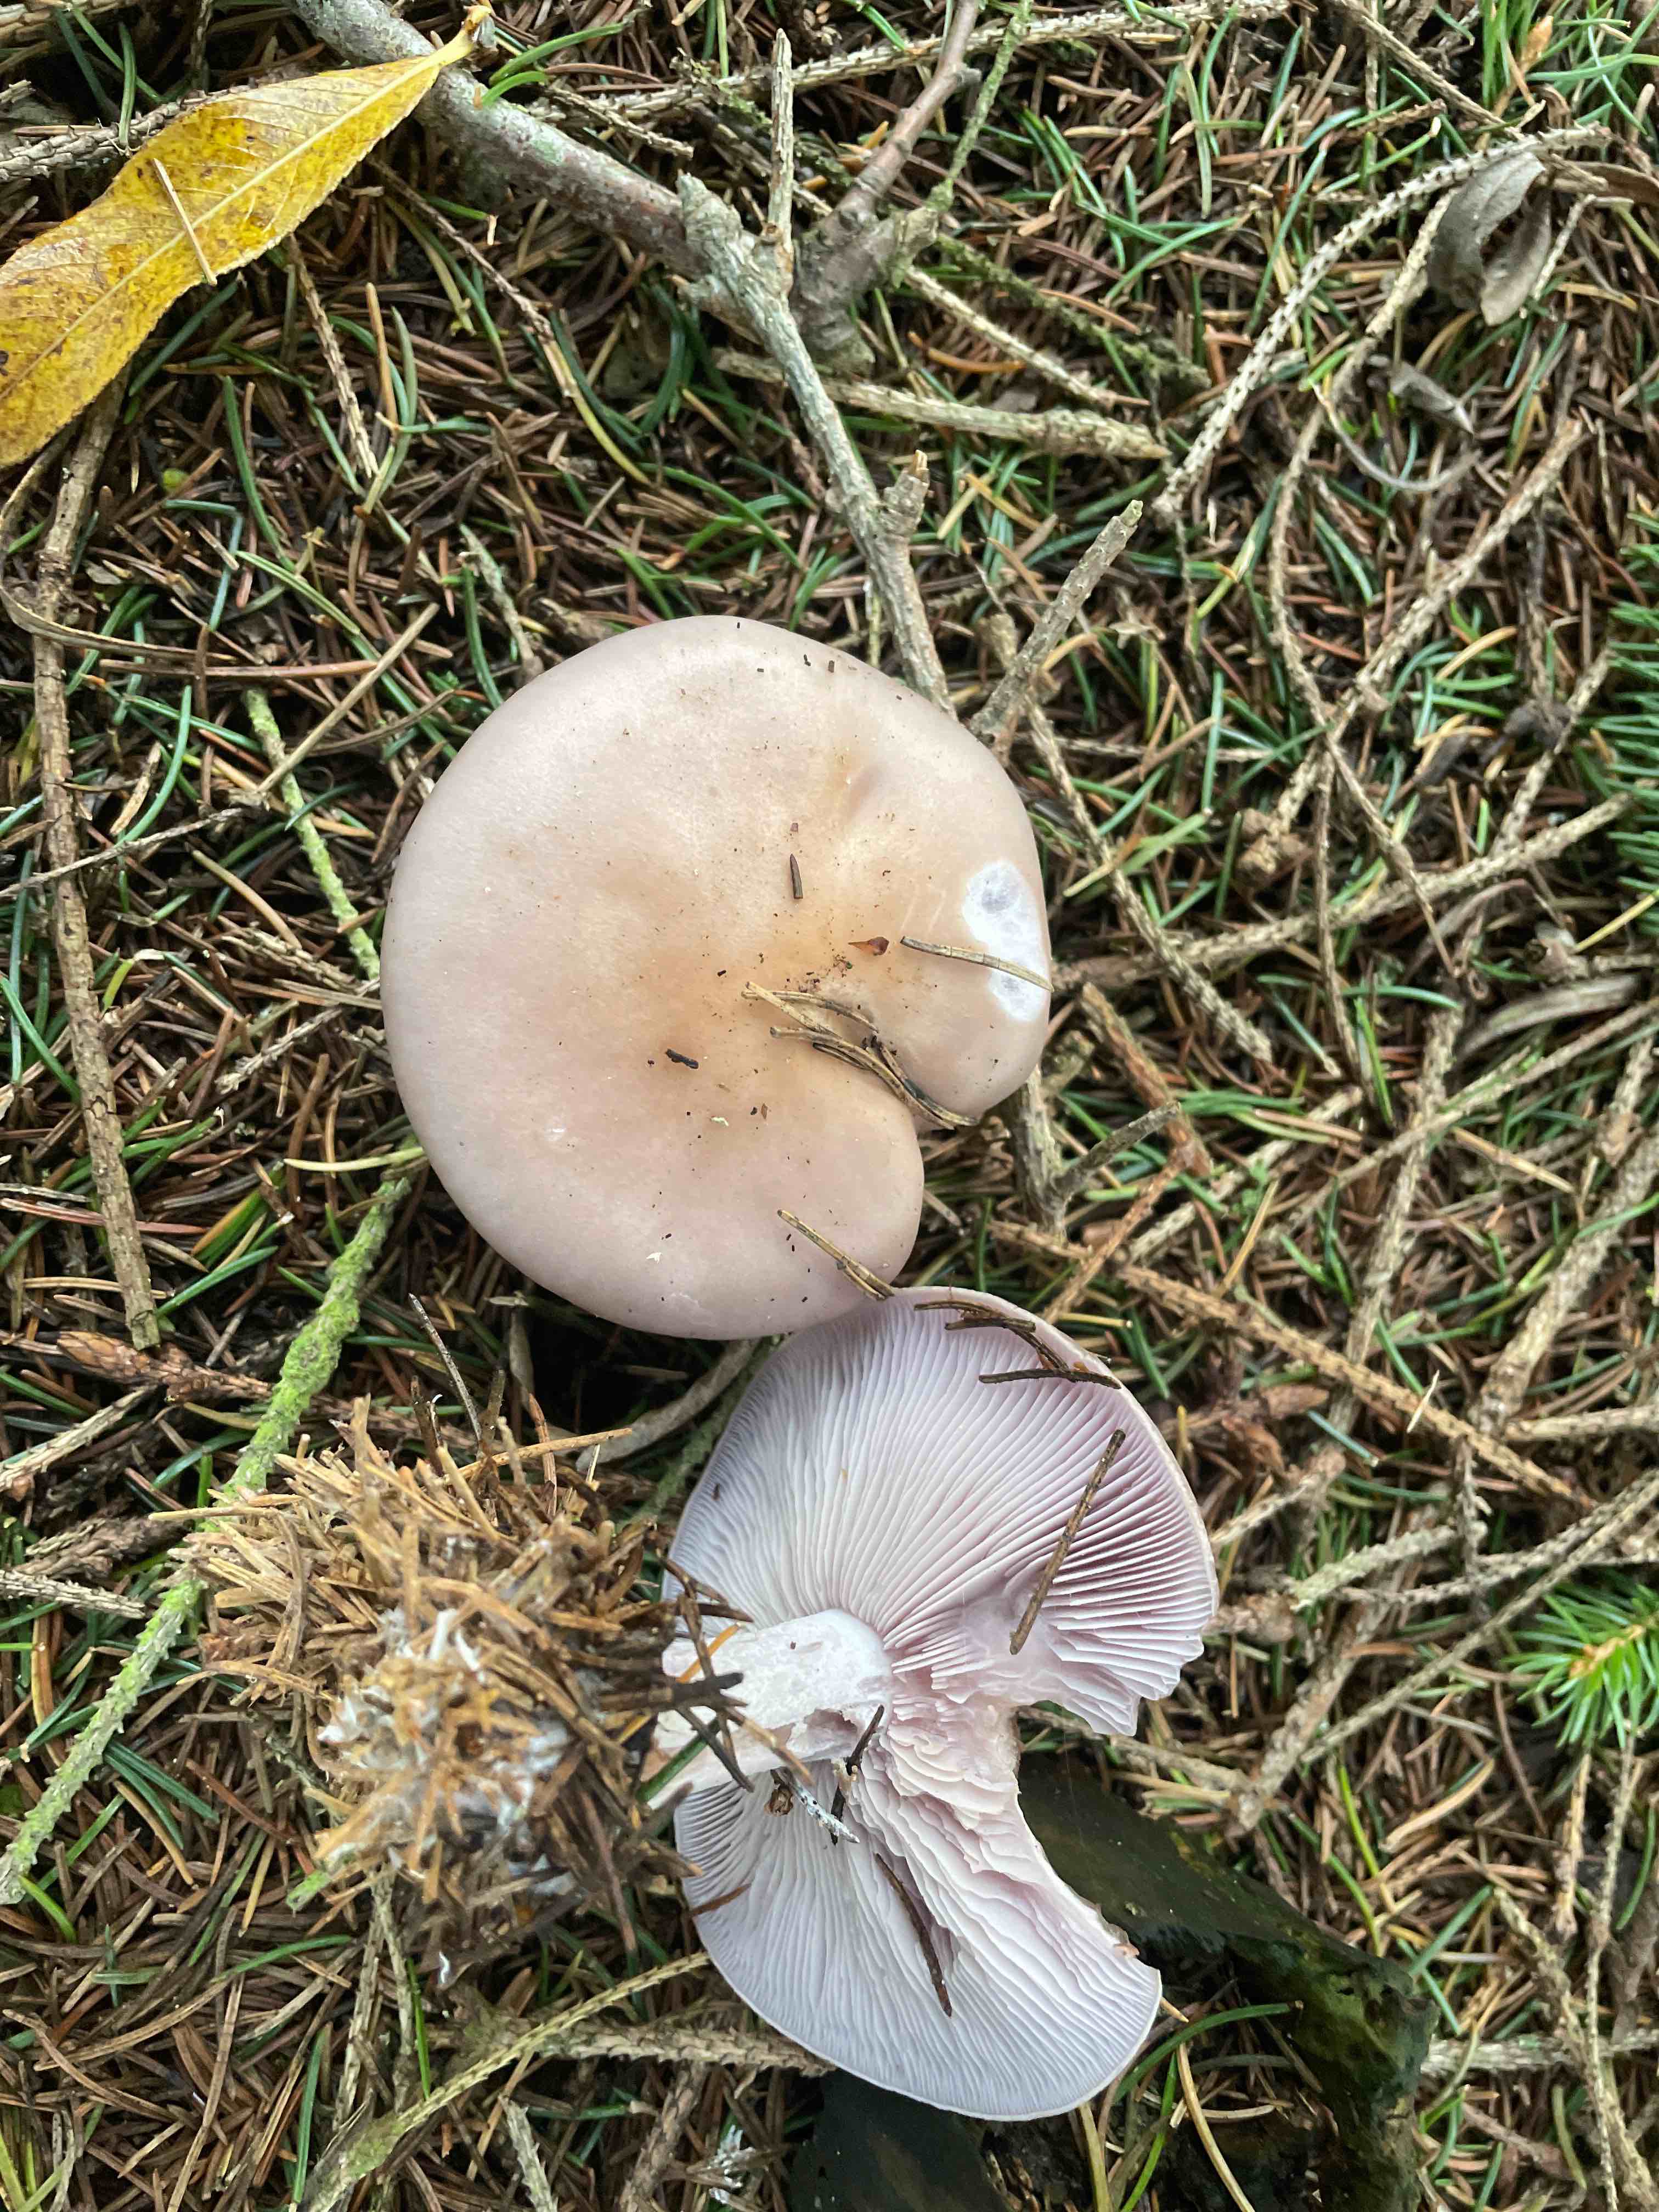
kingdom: Fungi
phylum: Basidiomycota
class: Agaricomycetes
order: Agaricales
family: Tricholomataceae
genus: Lepista
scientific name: Lepista nuda
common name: violet hekseringshat
